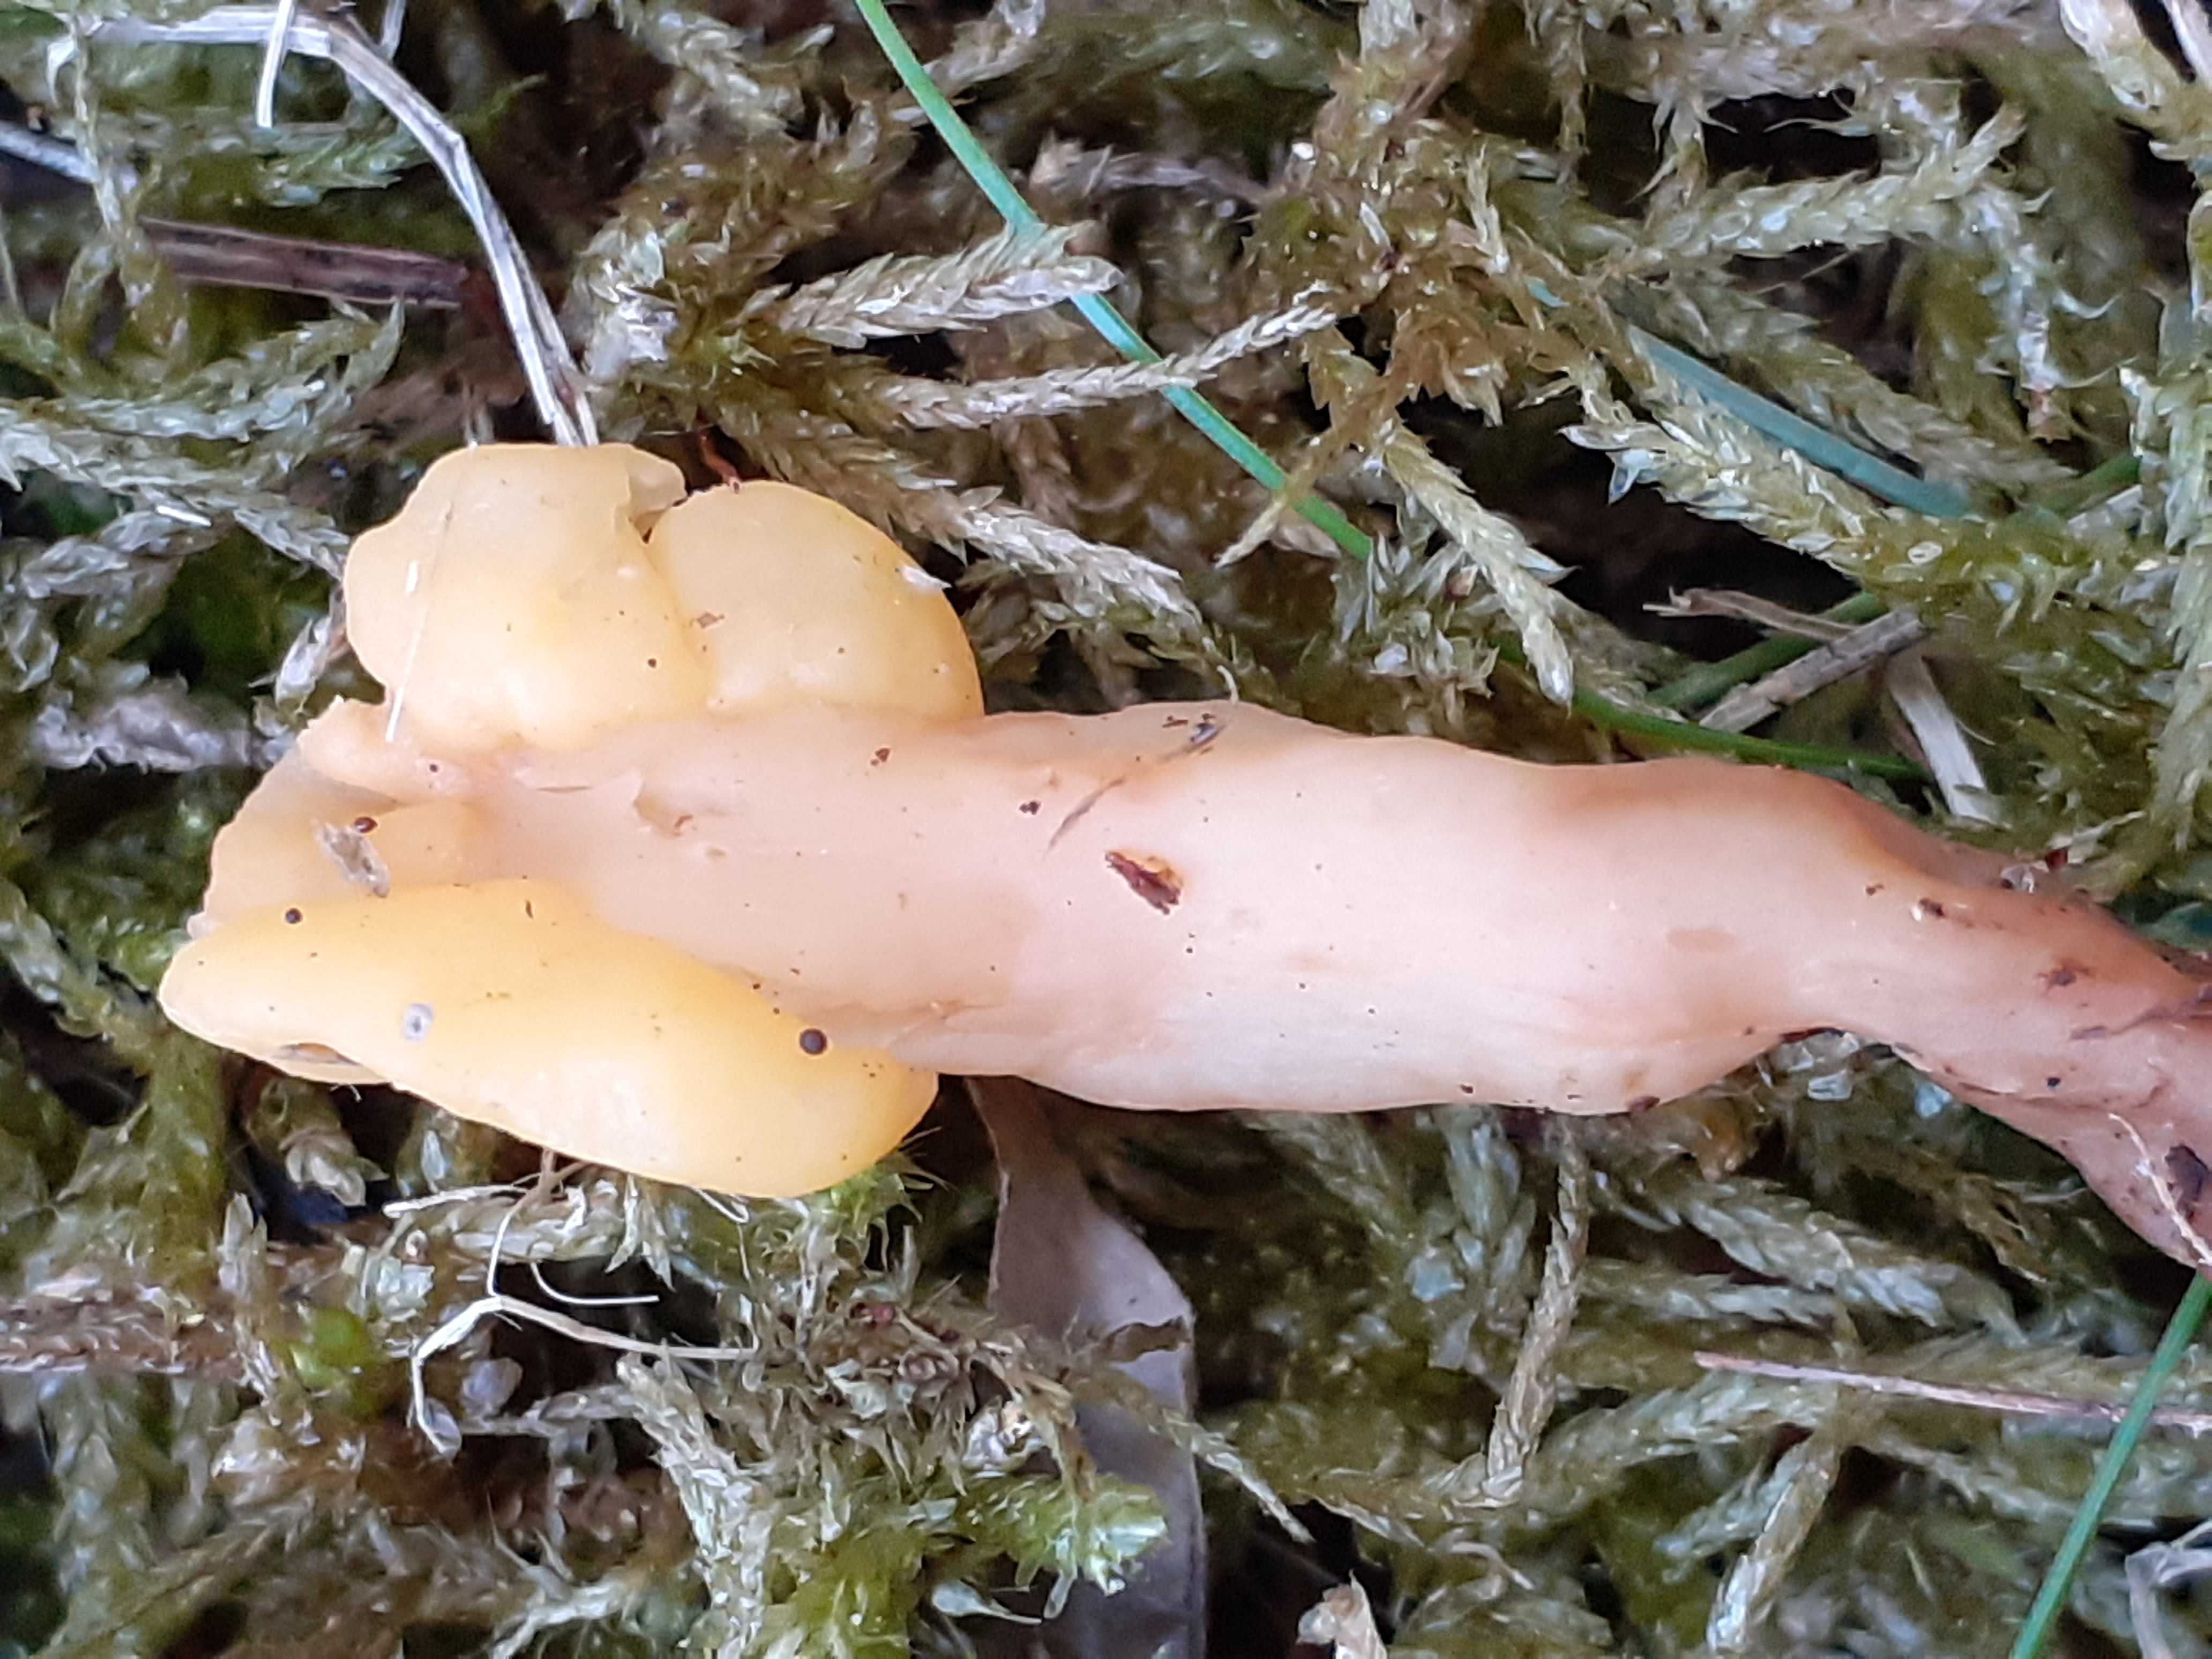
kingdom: Fungi
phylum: Ascomycota
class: Leotiomycetes
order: Rhytismatales
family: Cudoniaceae
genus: Spathularia
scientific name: Spathularia flavida
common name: gul spatelsvamp
